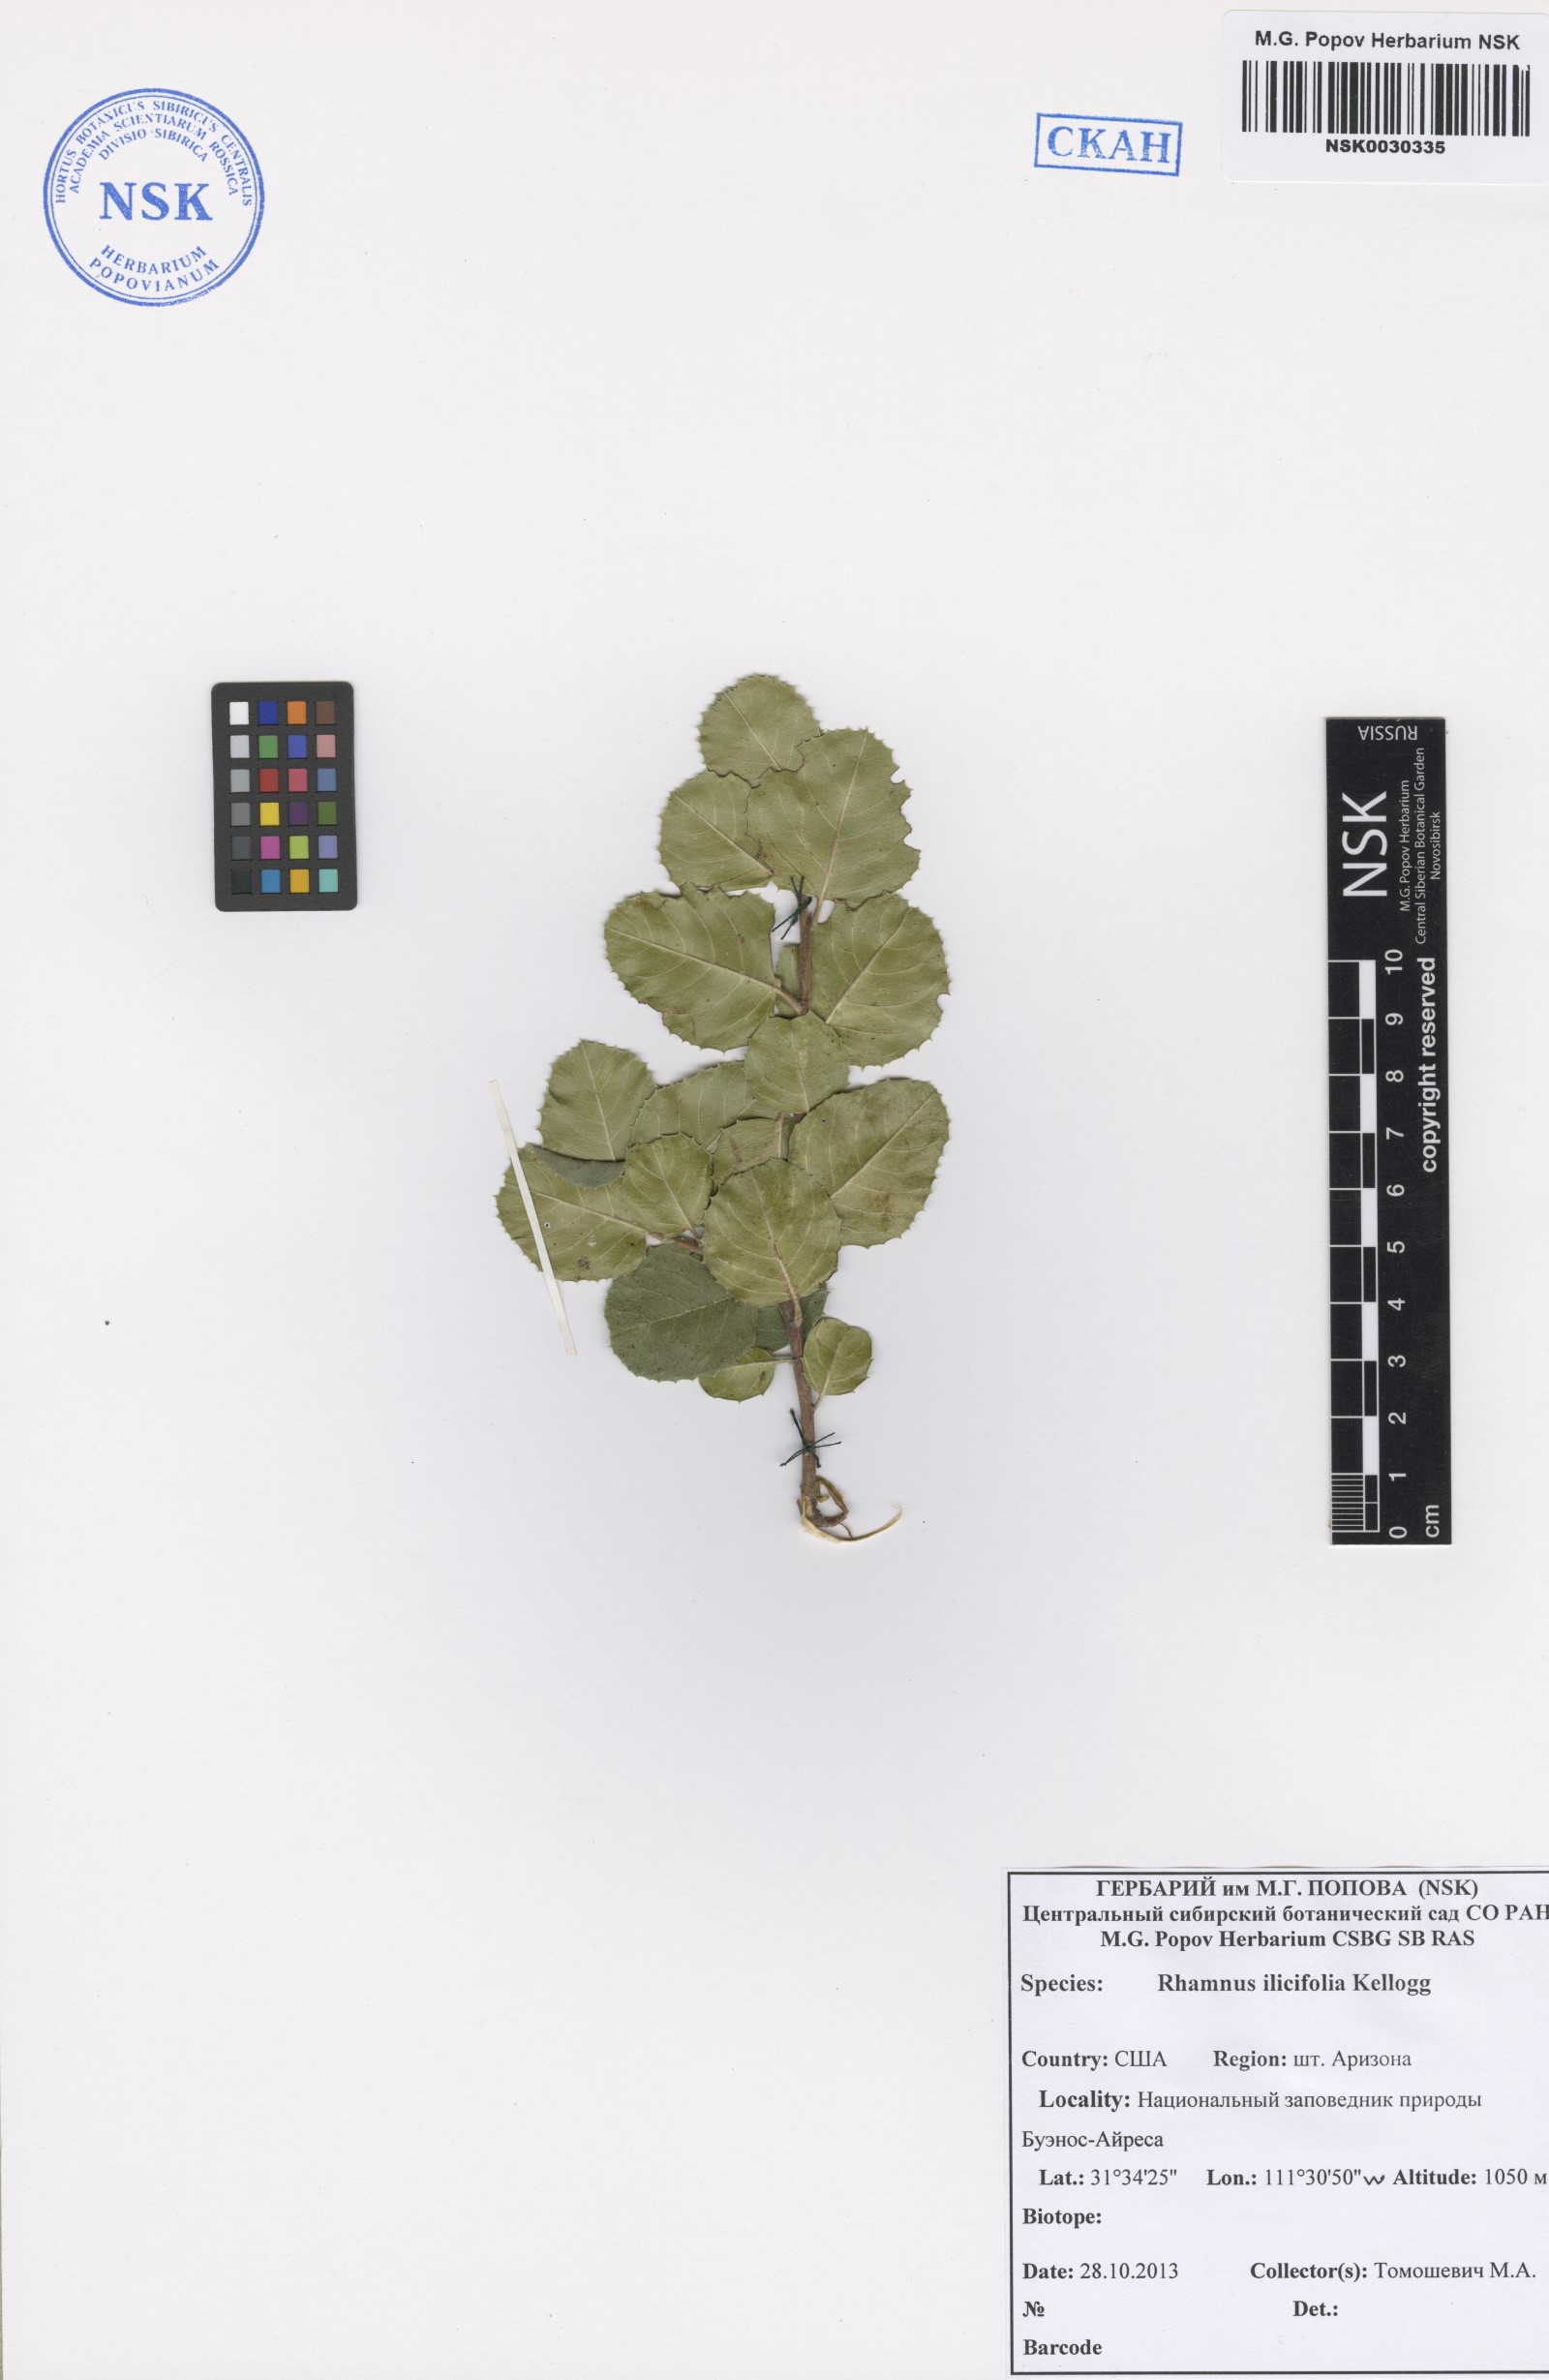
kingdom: Plantae
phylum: Tracheophyta
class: Magnoliopsida
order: Rosales
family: Rhamnaceae
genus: Endotropis
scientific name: Endotropis crocea
